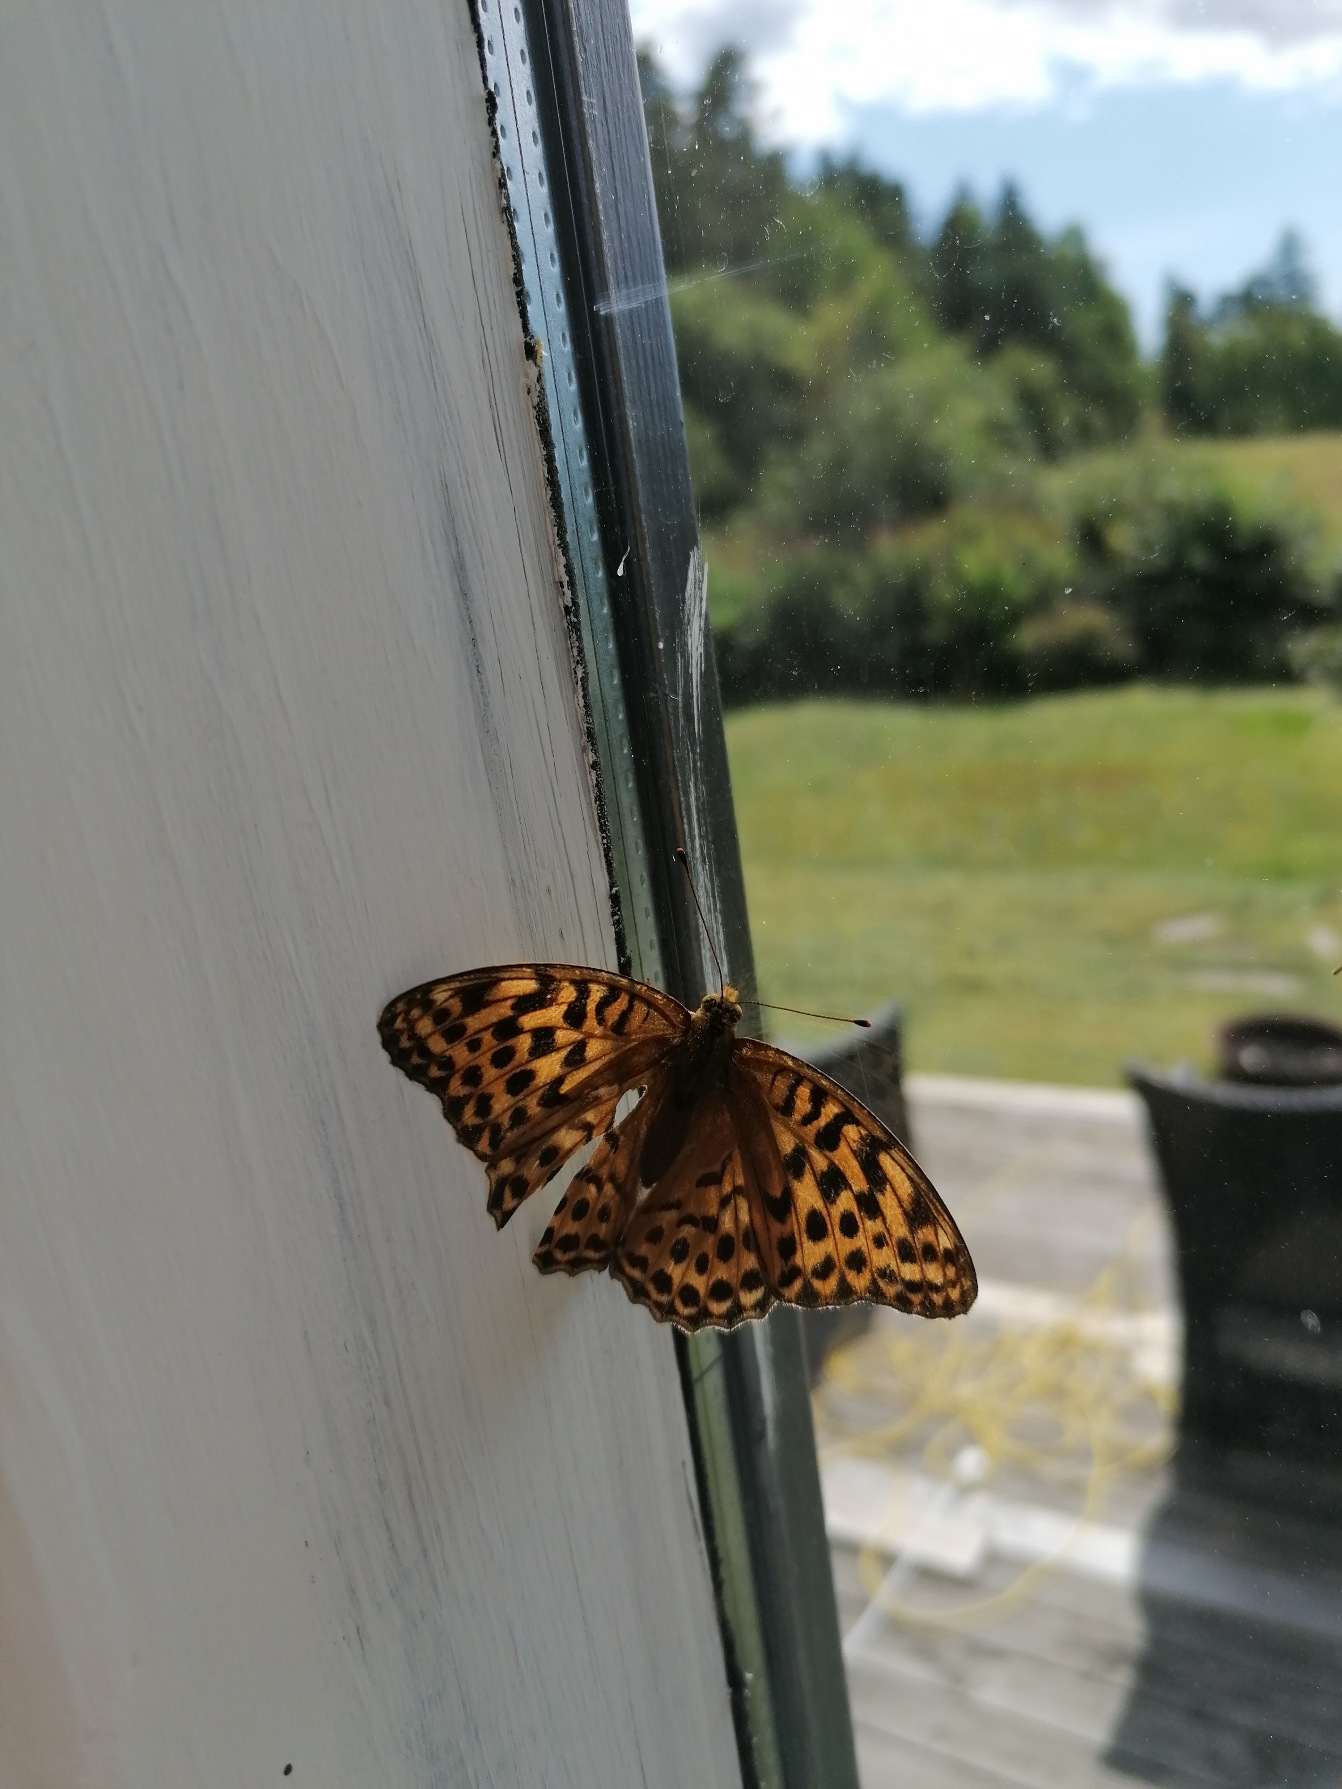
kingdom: Animalia
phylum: Arthropoda
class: Insecta
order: Lepidoptera
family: Nymphalidae
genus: Argynnis
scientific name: Argynnis paphia
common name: Kejserkåbe
